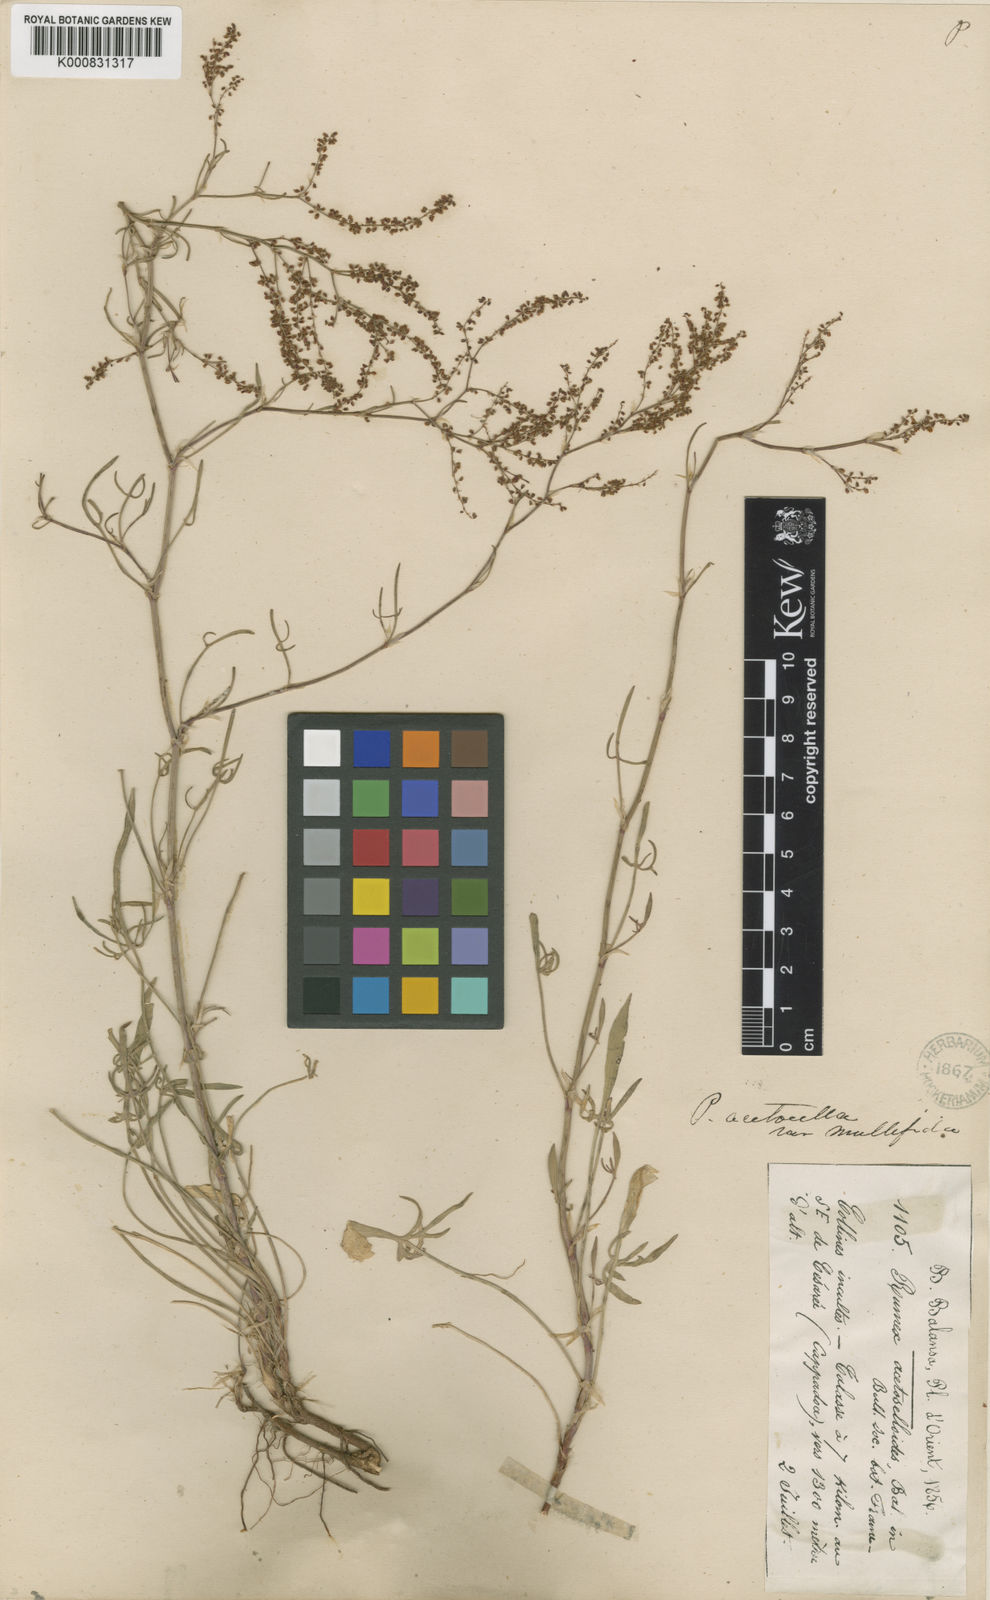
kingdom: Plantae
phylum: Tracheophyta
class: Magnoliopsida
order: Caryophyllales
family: Polygonaceae
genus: Rumex
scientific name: Rumex acetosella
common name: Common sheep sorrel
